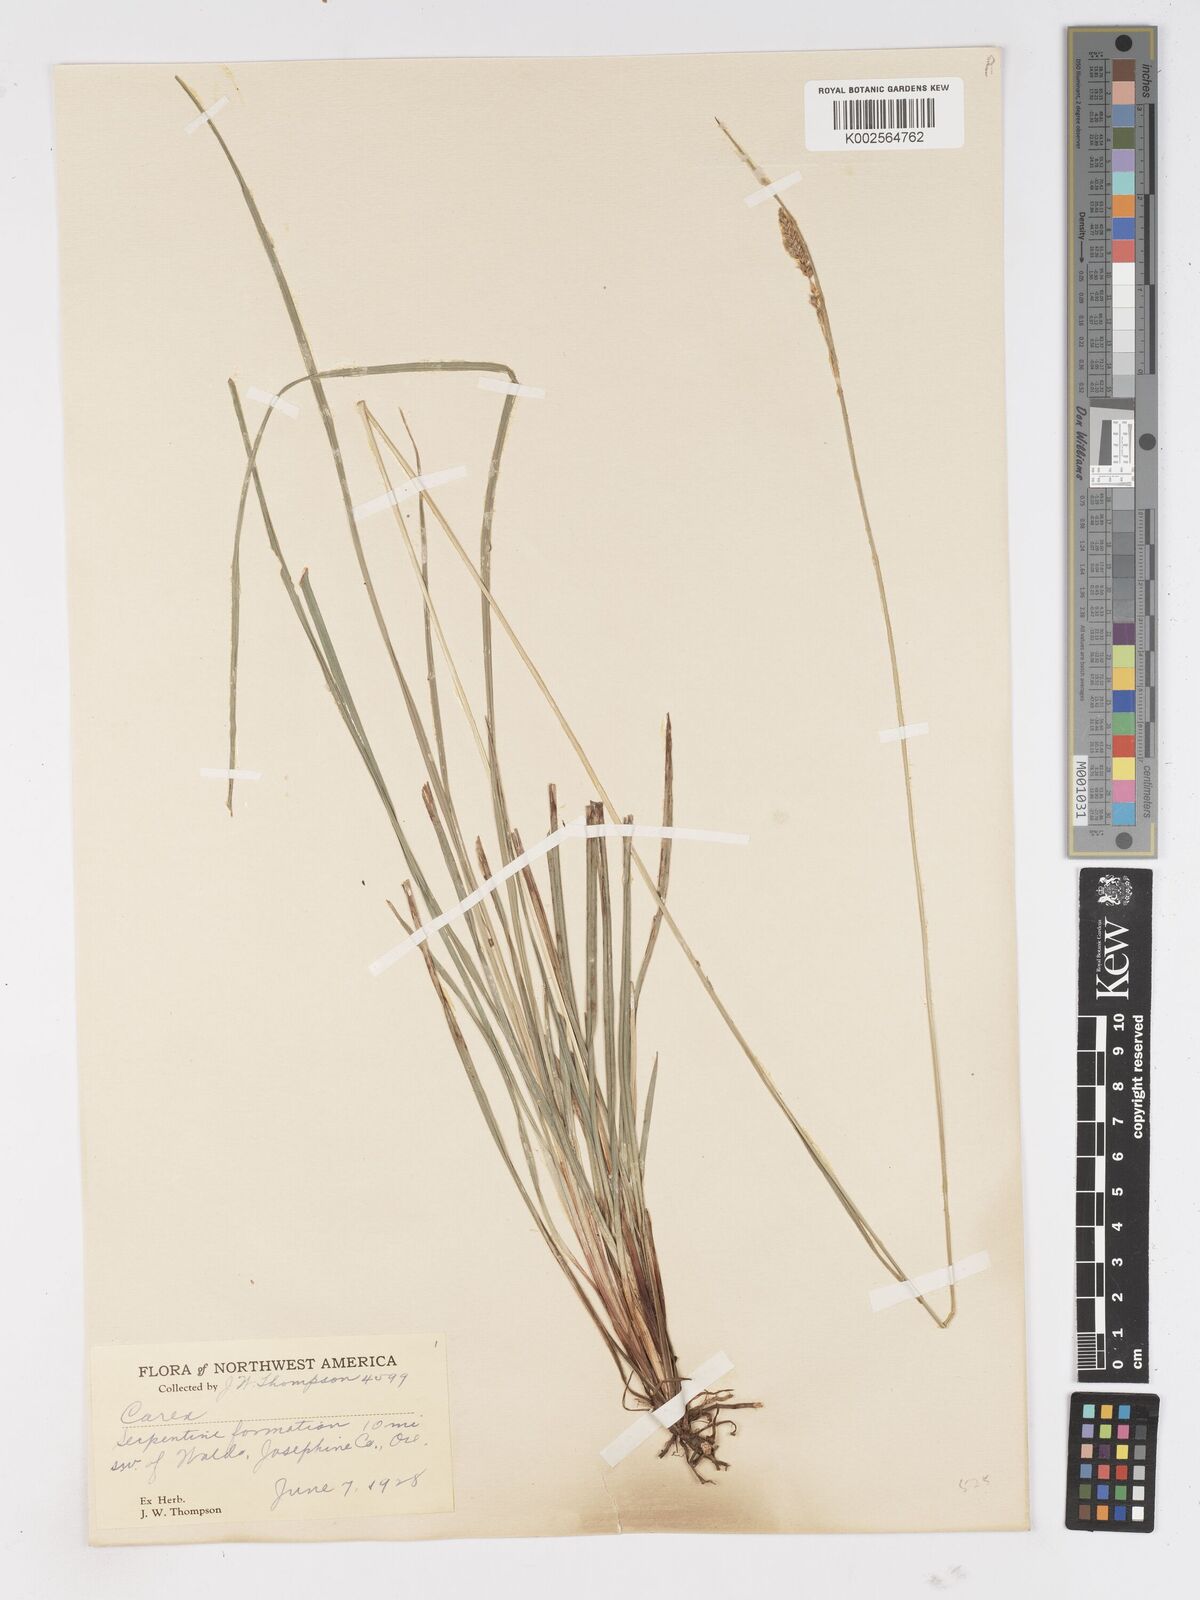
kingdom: Plantae
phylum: Tracheophyta
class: Liliopsida
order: Poales
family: Cyperaceae
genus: Carex
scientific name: Carex
